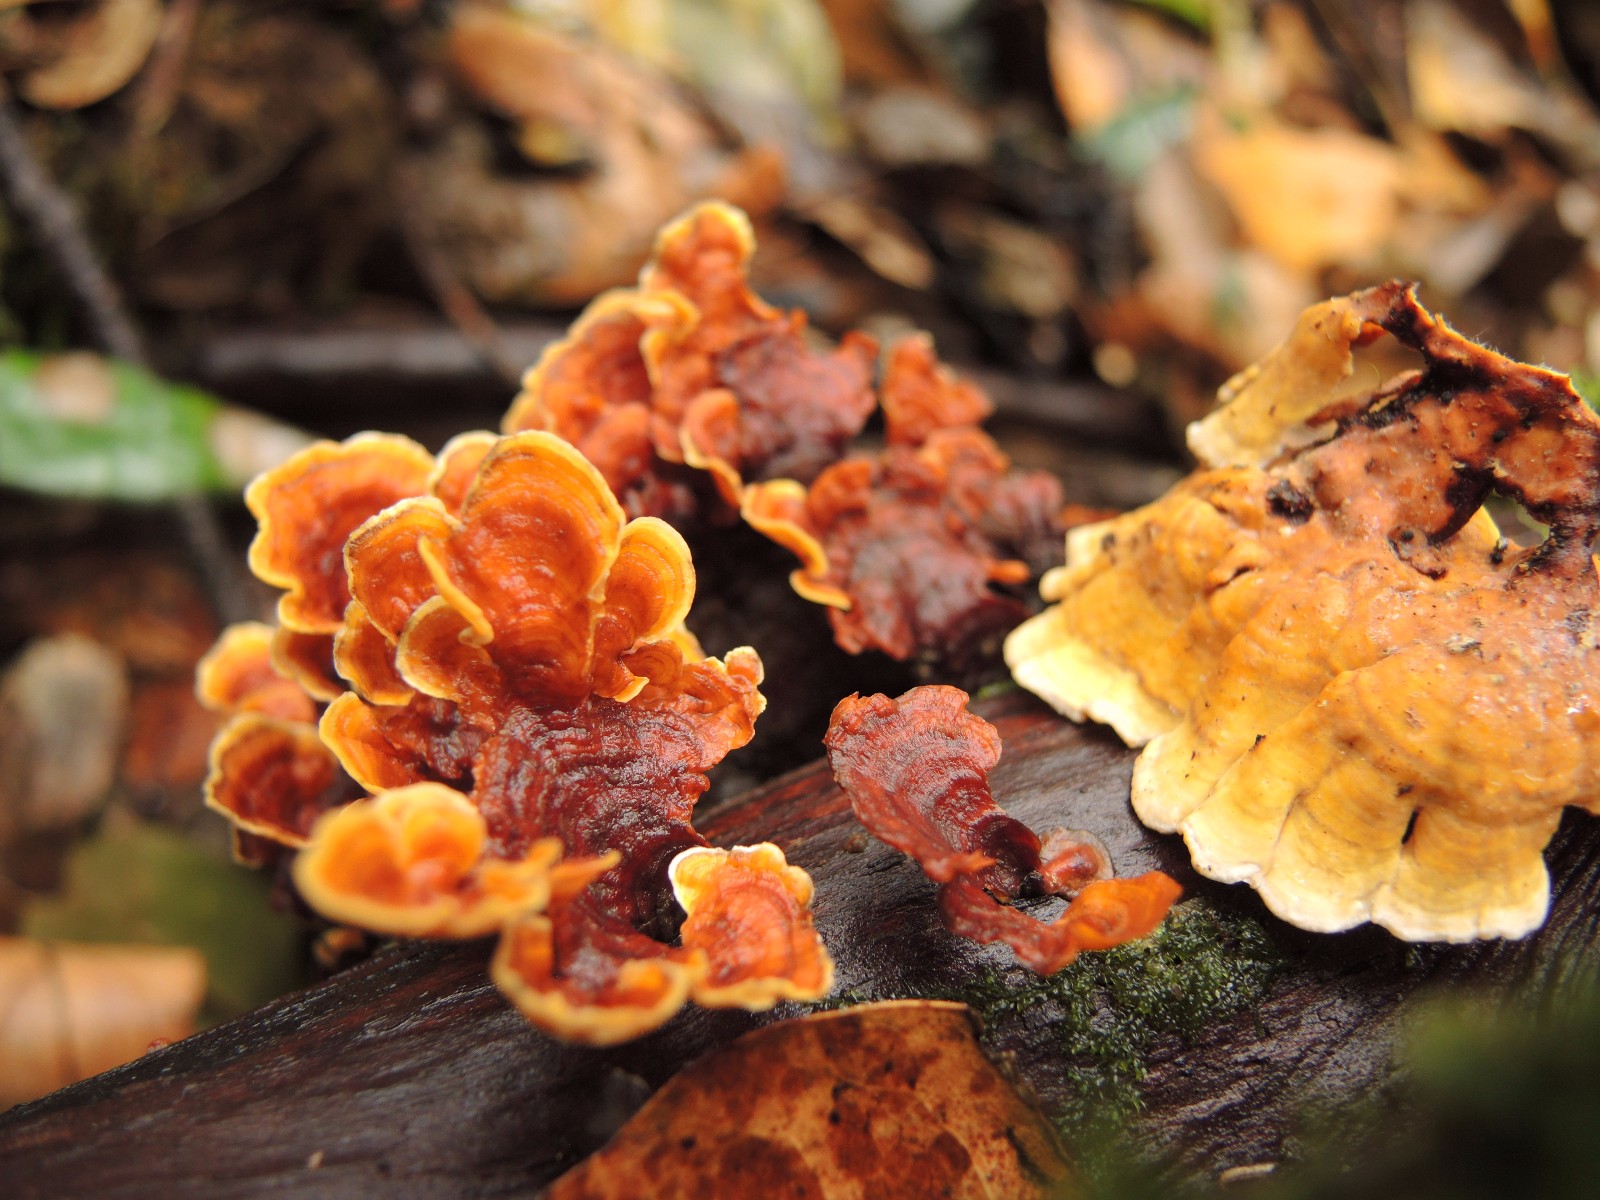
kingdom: Fungi
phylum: Basidiomycota
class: Agaricomycetes
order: Russulales
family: Stereaceae
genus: Stereum
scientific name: Stereum subtomentosum
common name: smuk lædersvamp
